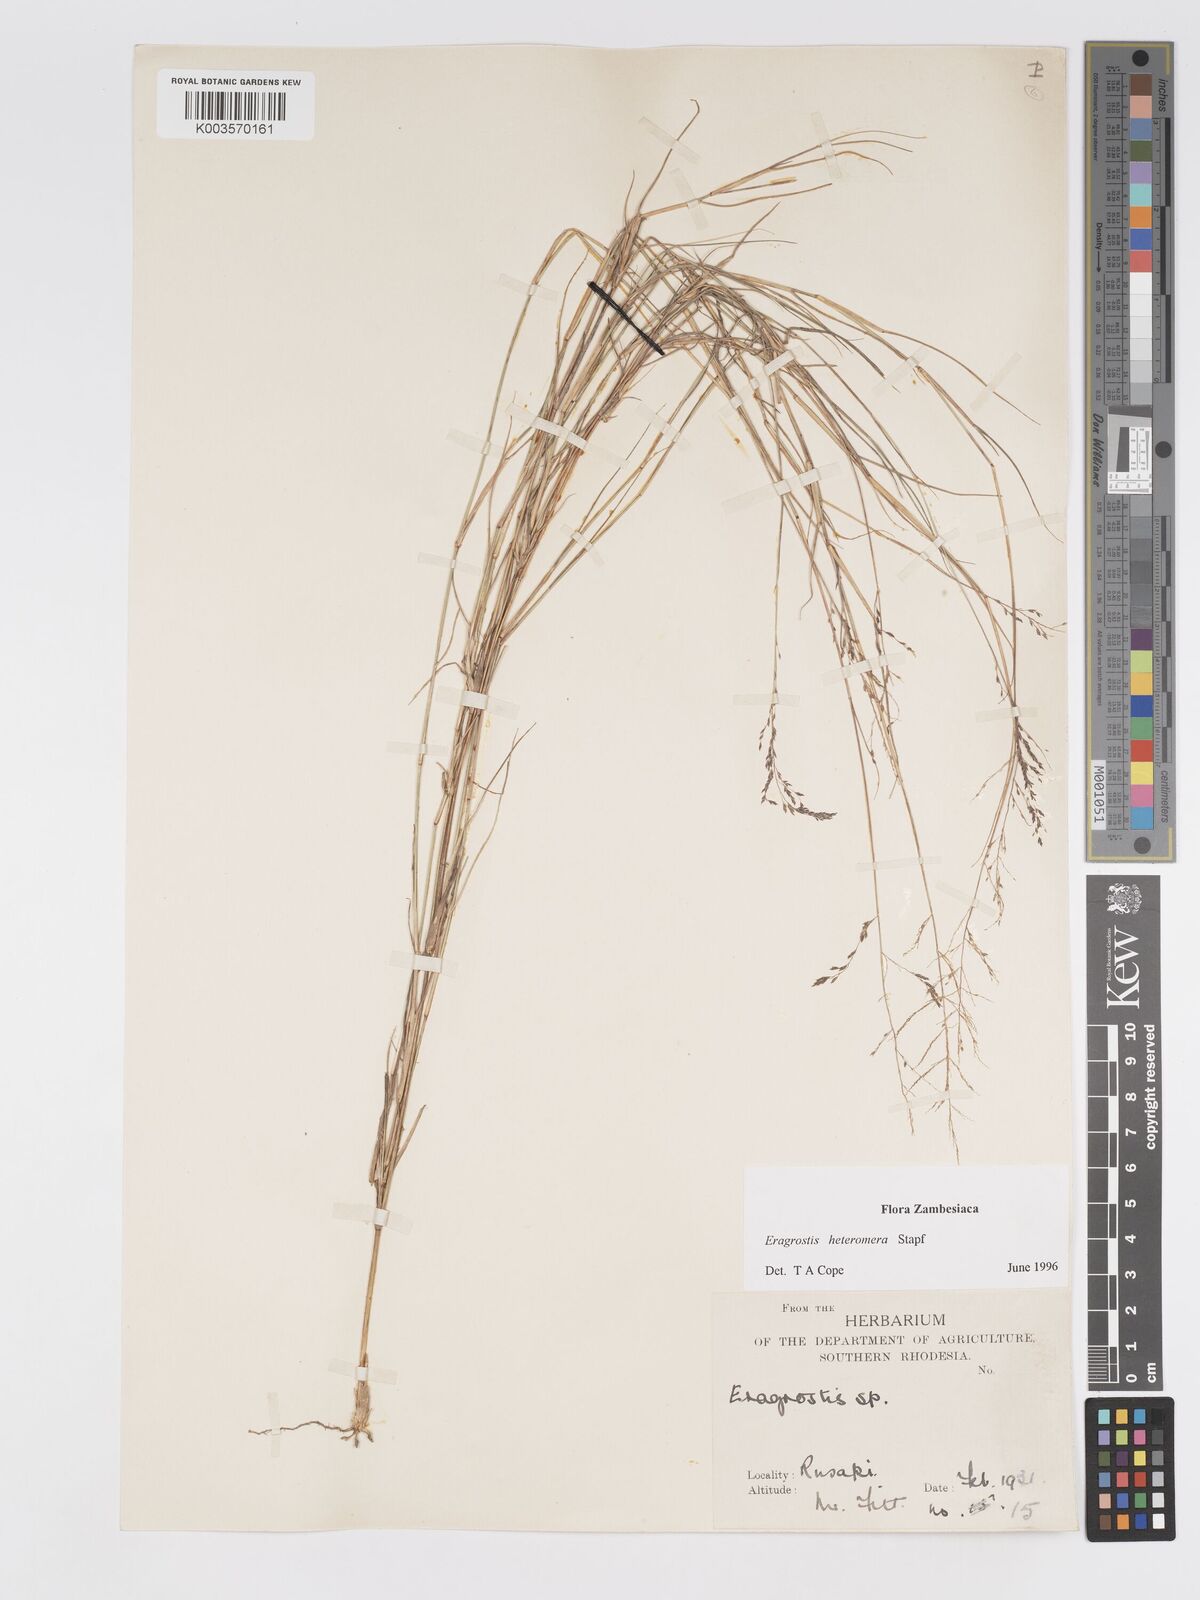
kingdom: Plantae
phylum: Tracheophyta
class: Liliopsida
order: Poales
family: Poaceae
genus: Eragrostis
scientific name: Eragrostis heteromera
